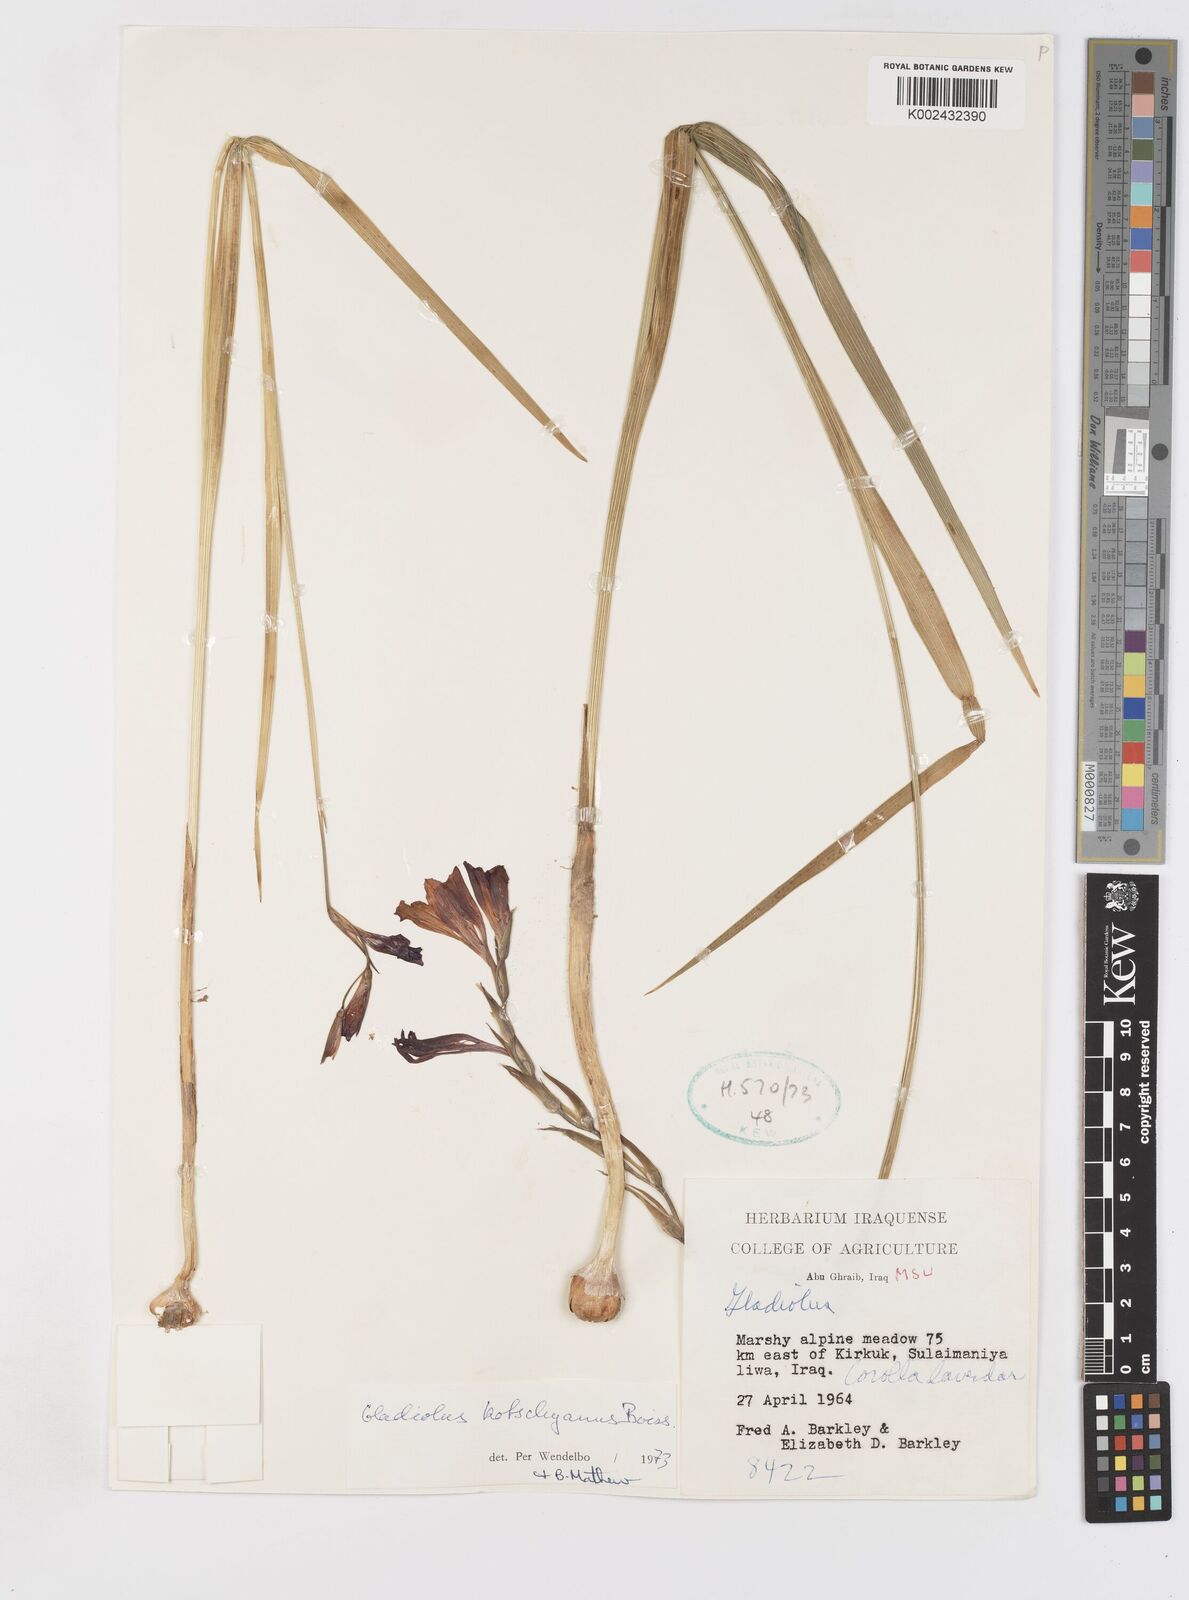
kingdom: Plantae
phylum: Tracheophyta
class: Liliopsida
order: Asparagales
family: Iridaceae
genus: Gladiolus
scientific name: Gladiolus kotschyanus
